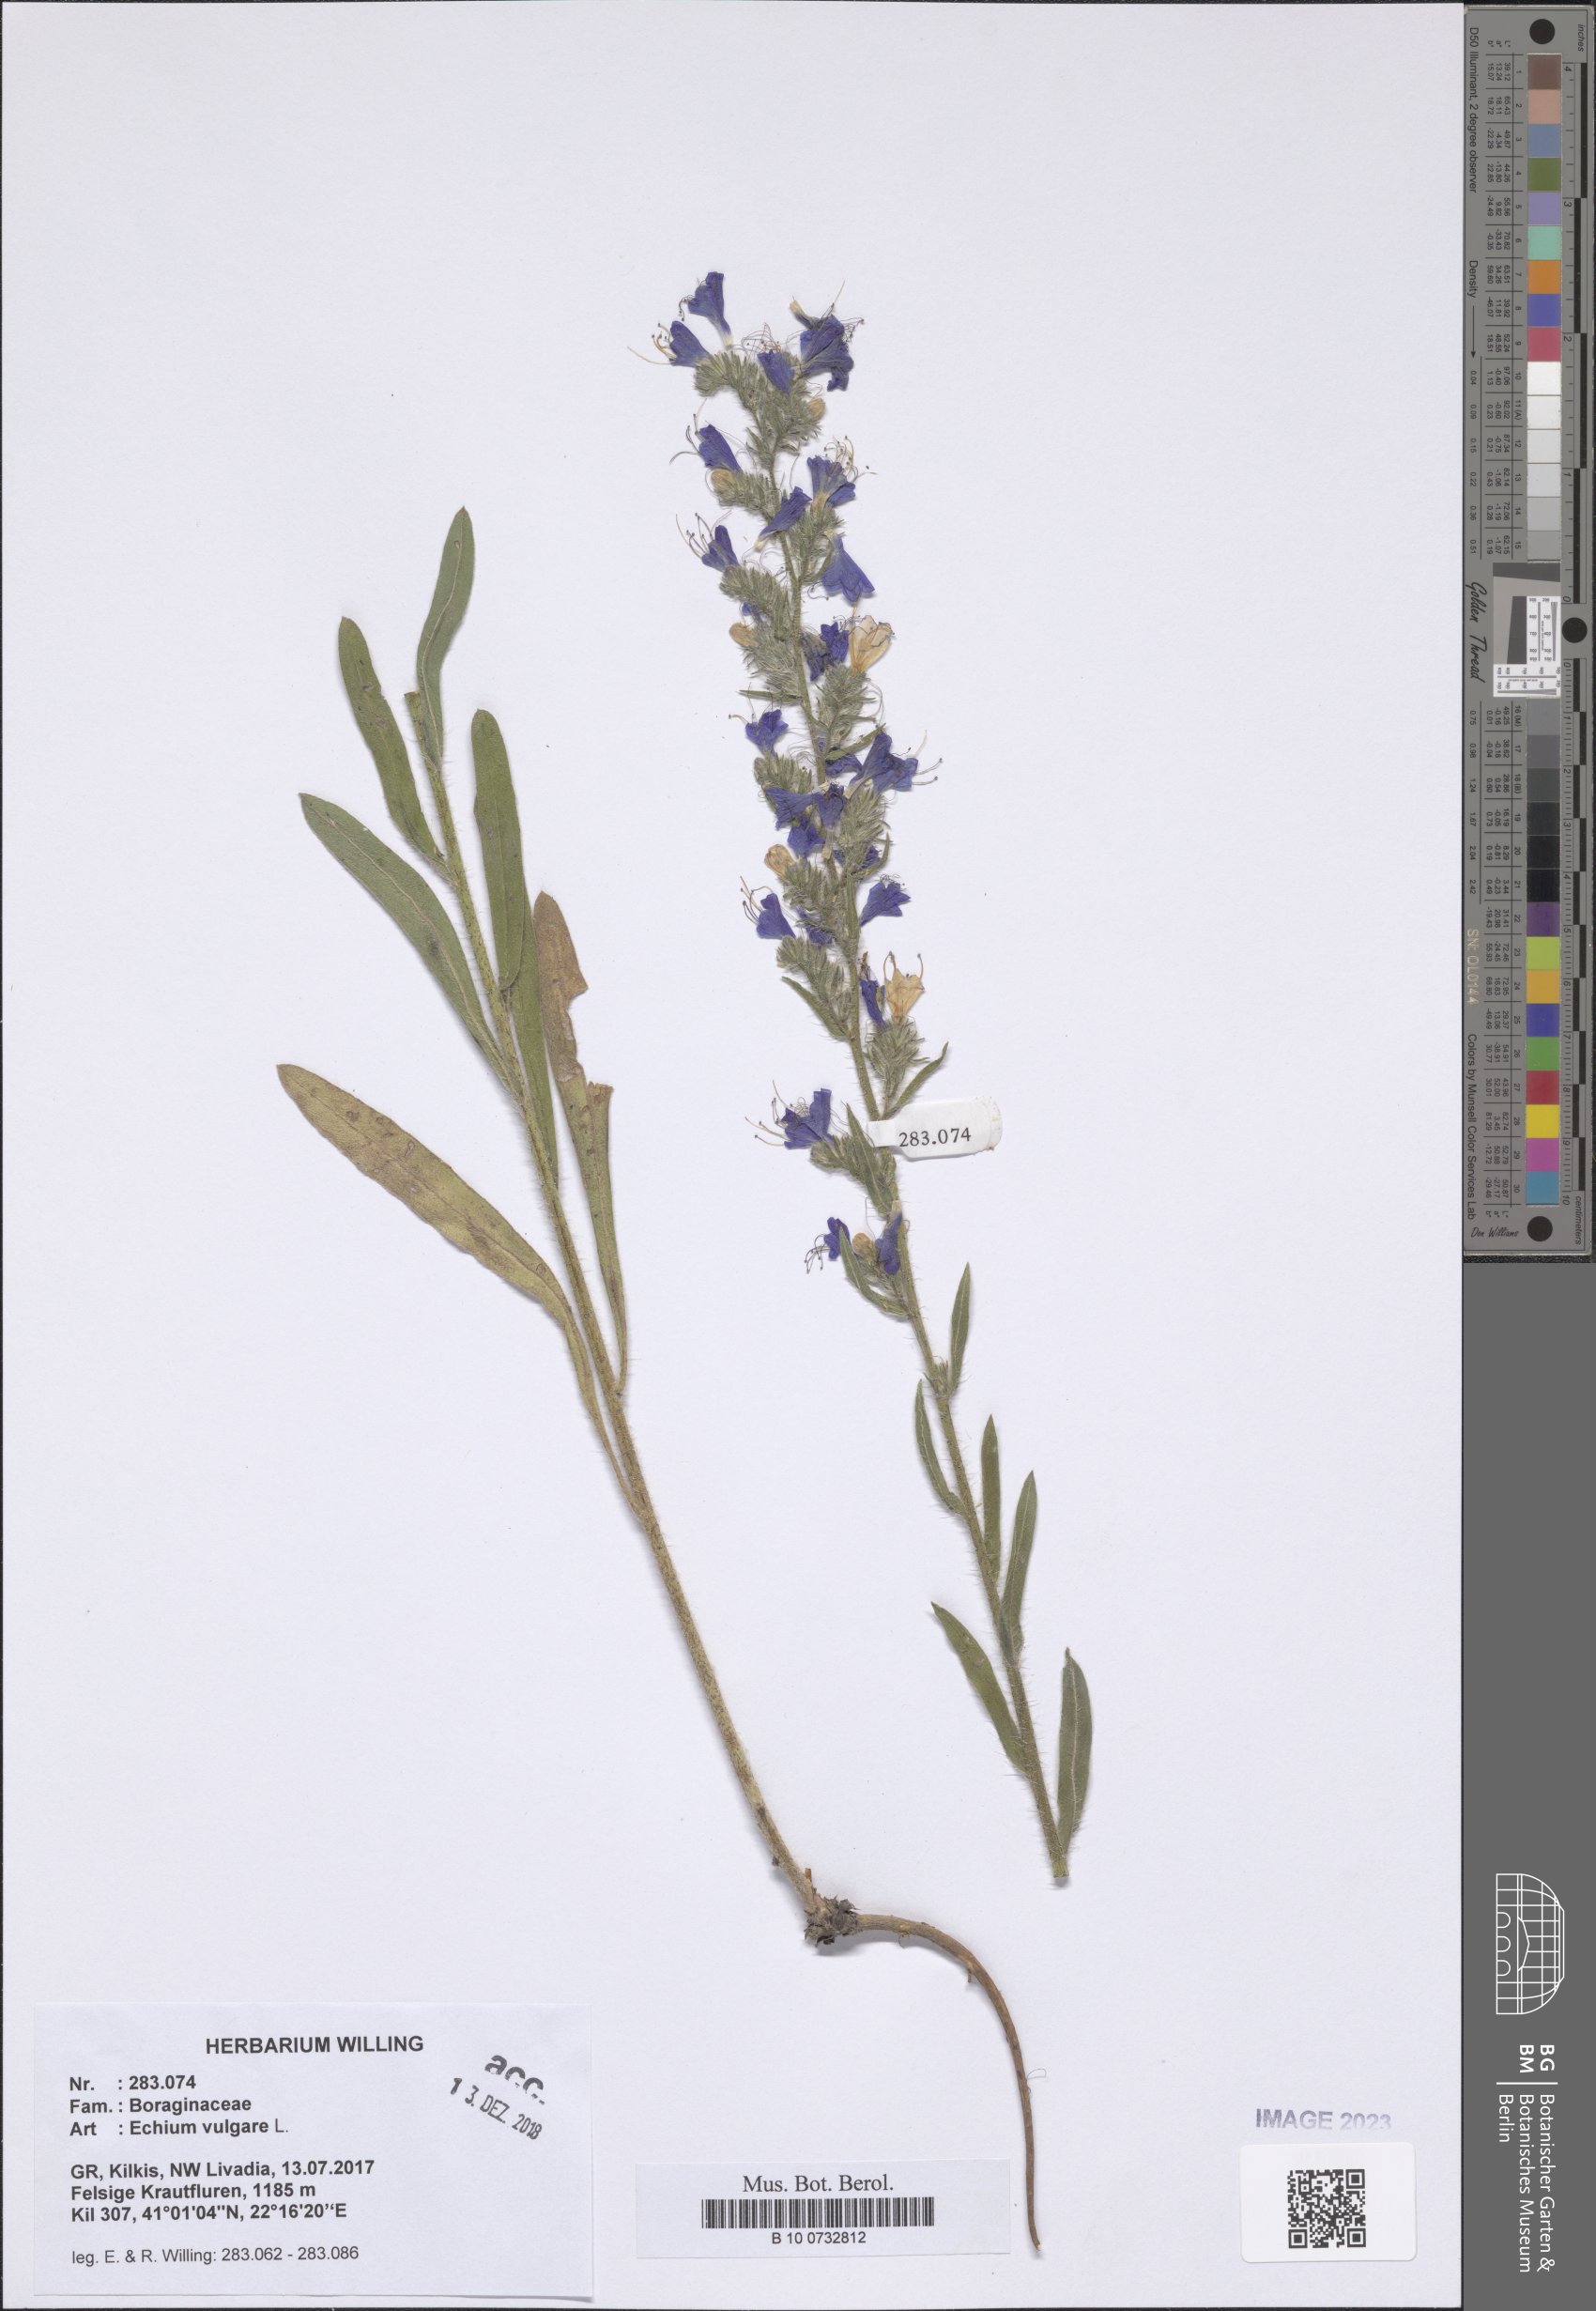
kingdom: Plantae
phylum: Tracheophyta
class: Magnoliopsida
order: Boraginales
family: Boraginaceae
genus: Echium
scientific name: Echium vulgare
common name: Common viper's bugloss
